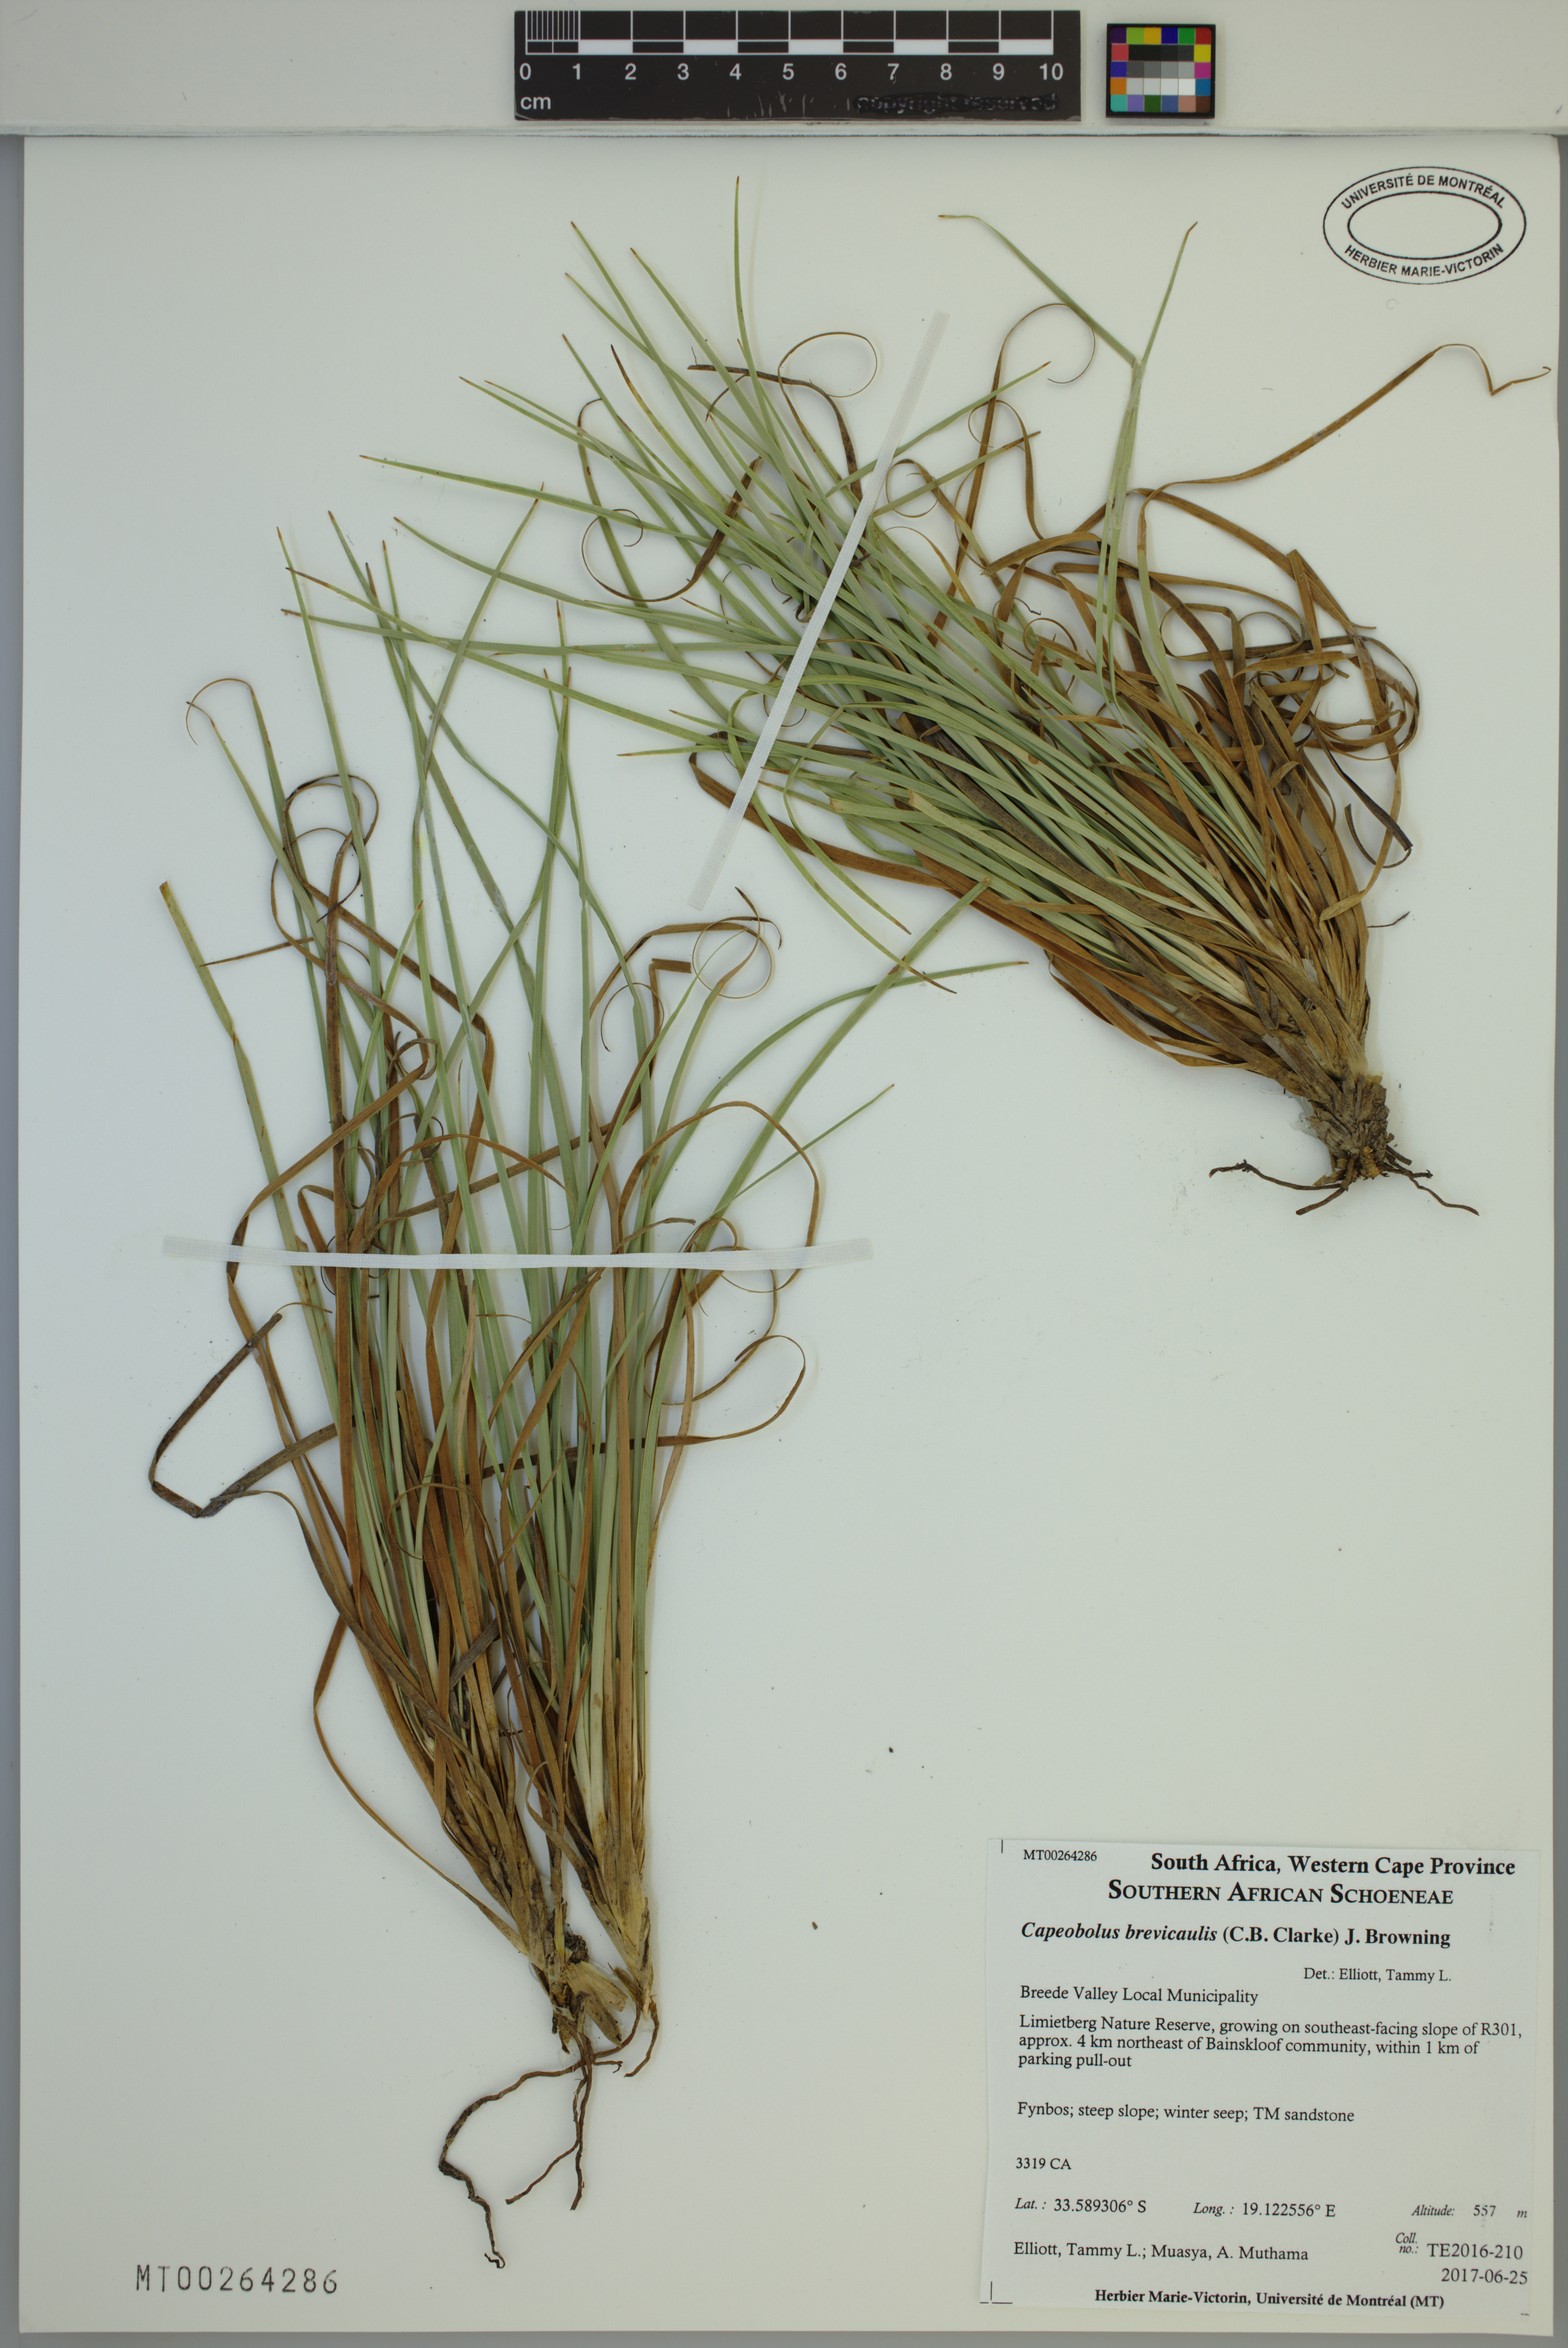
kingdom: Plantae
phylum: Tracheophyta
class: Liliopsida
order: Poales
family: Cyperaceae
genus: Capeobolus
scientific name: Capeobolus brevicaulis
